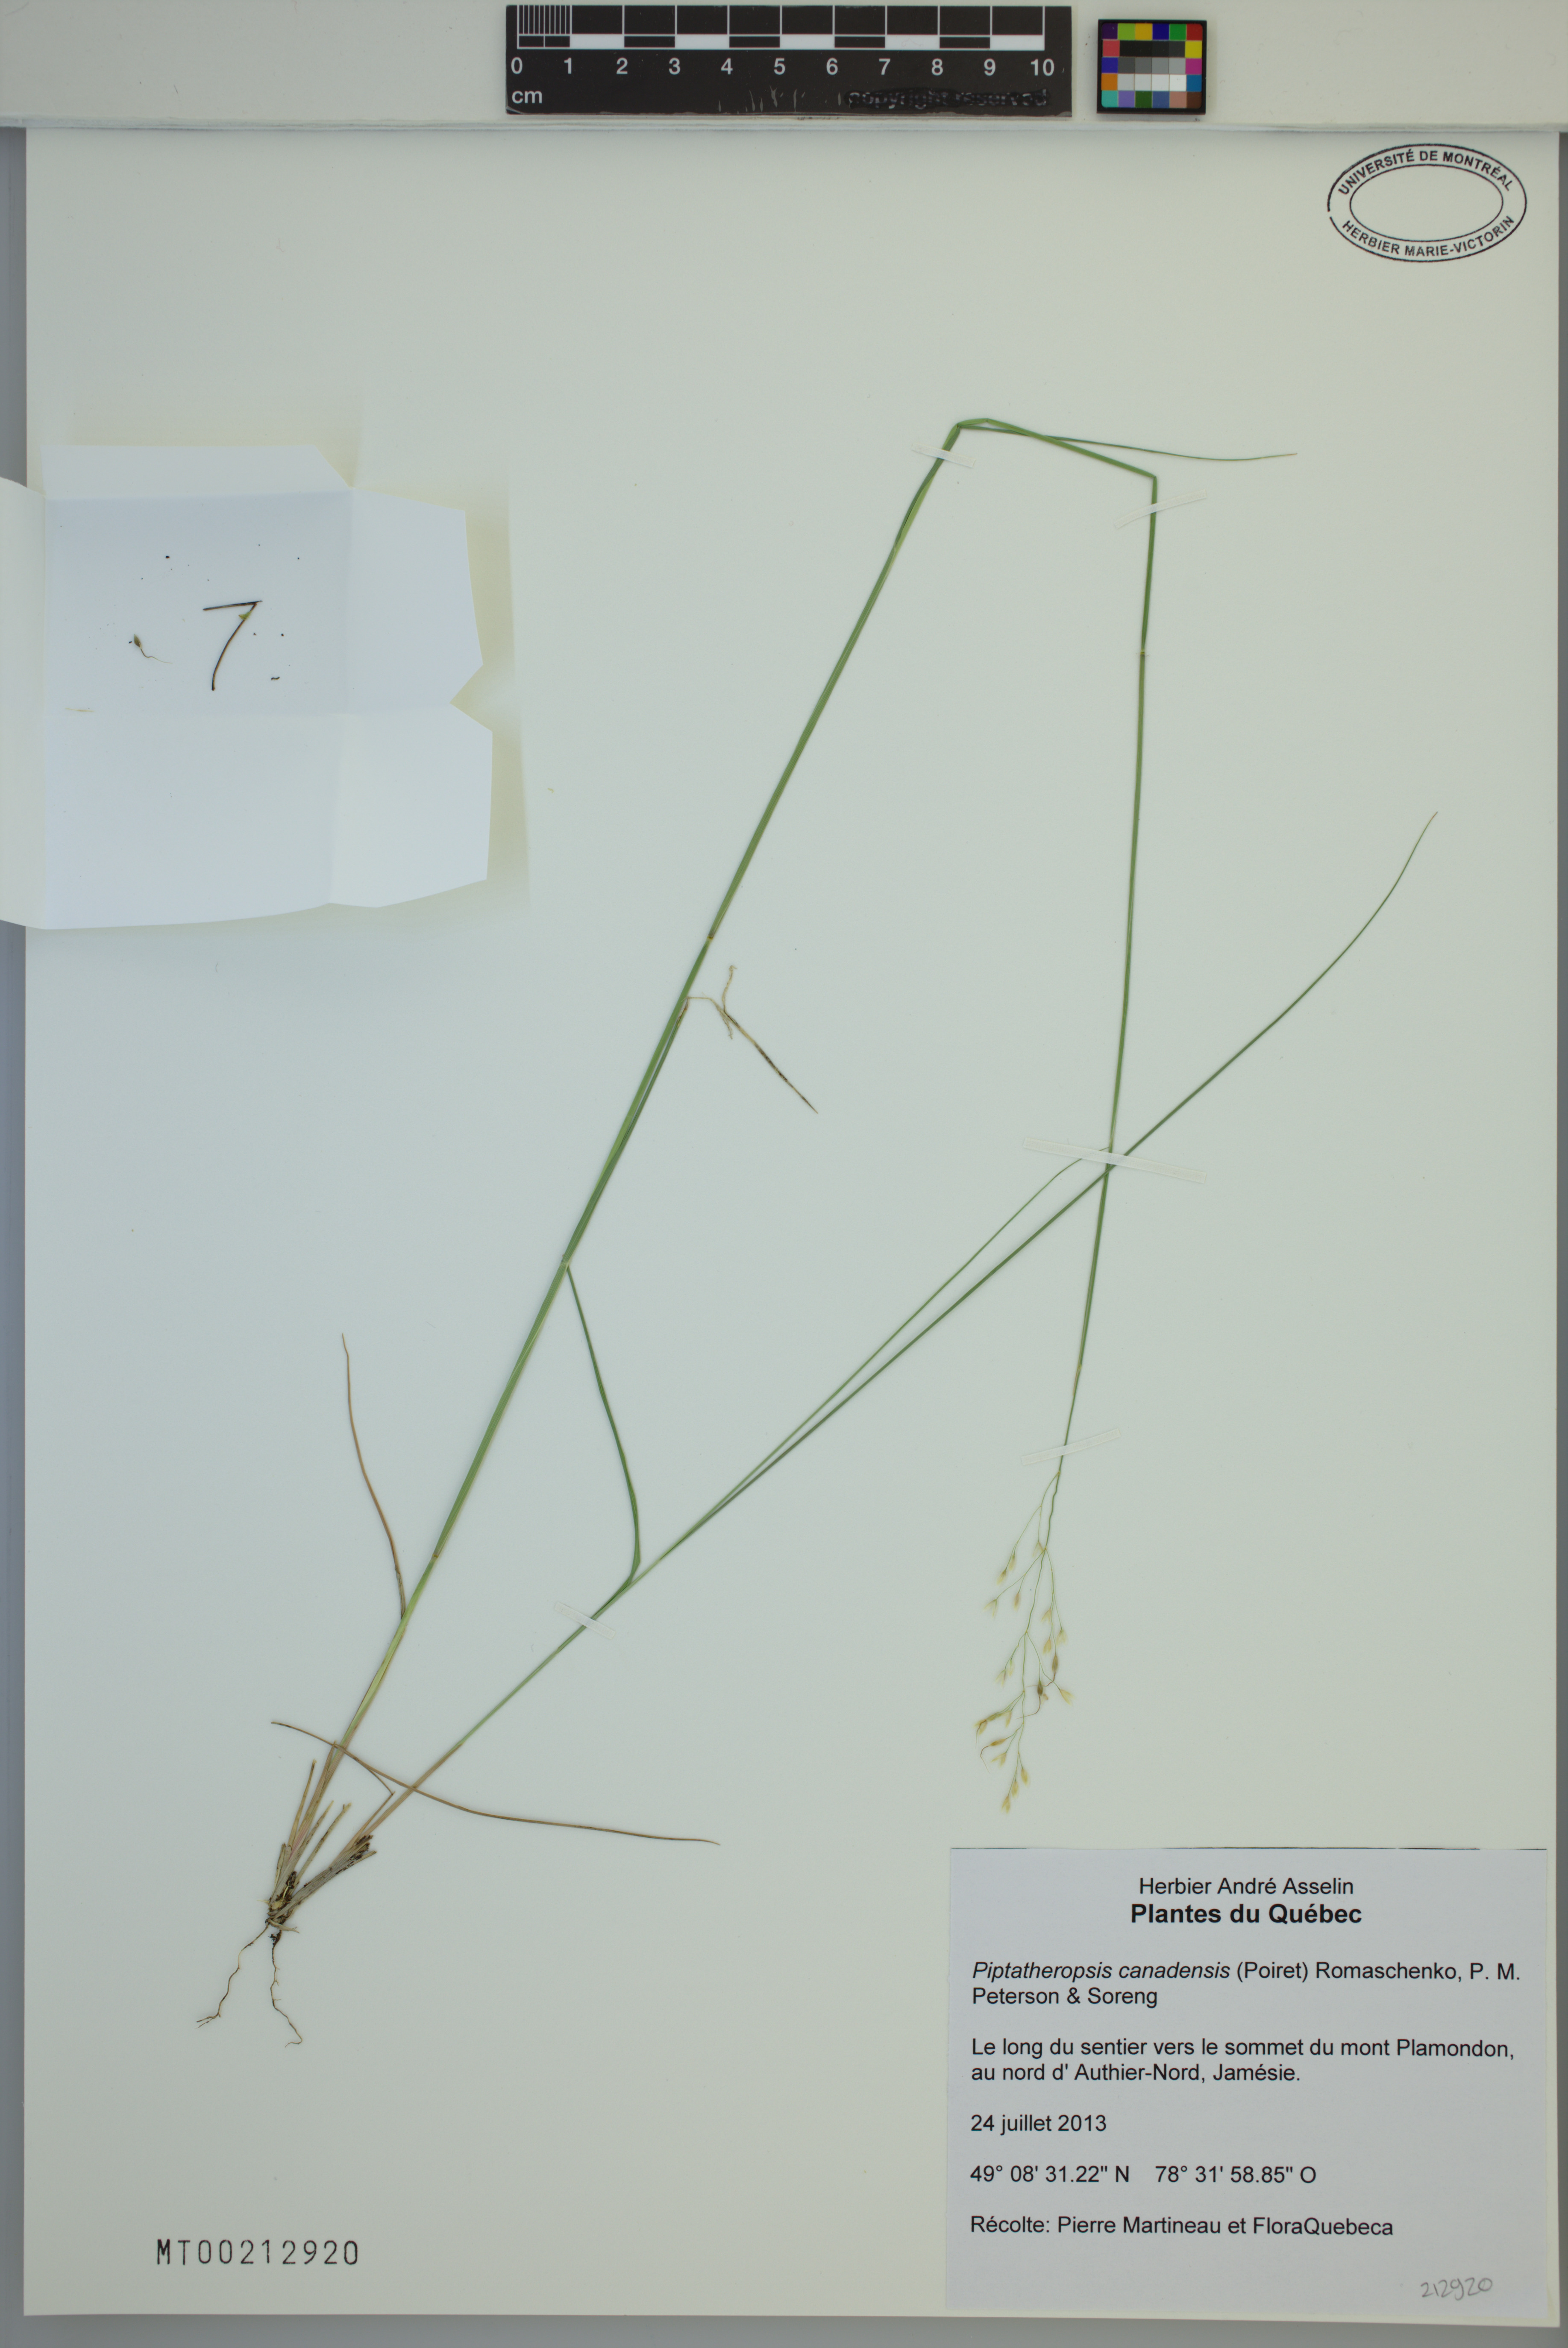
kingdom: Plantae
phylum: Tracheophyta
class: Liliopsida
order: Poales
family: Poaceae
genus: Piptatheropsis
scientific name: Piptatheropsis canadensis
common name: Canada mountain ricegrass
